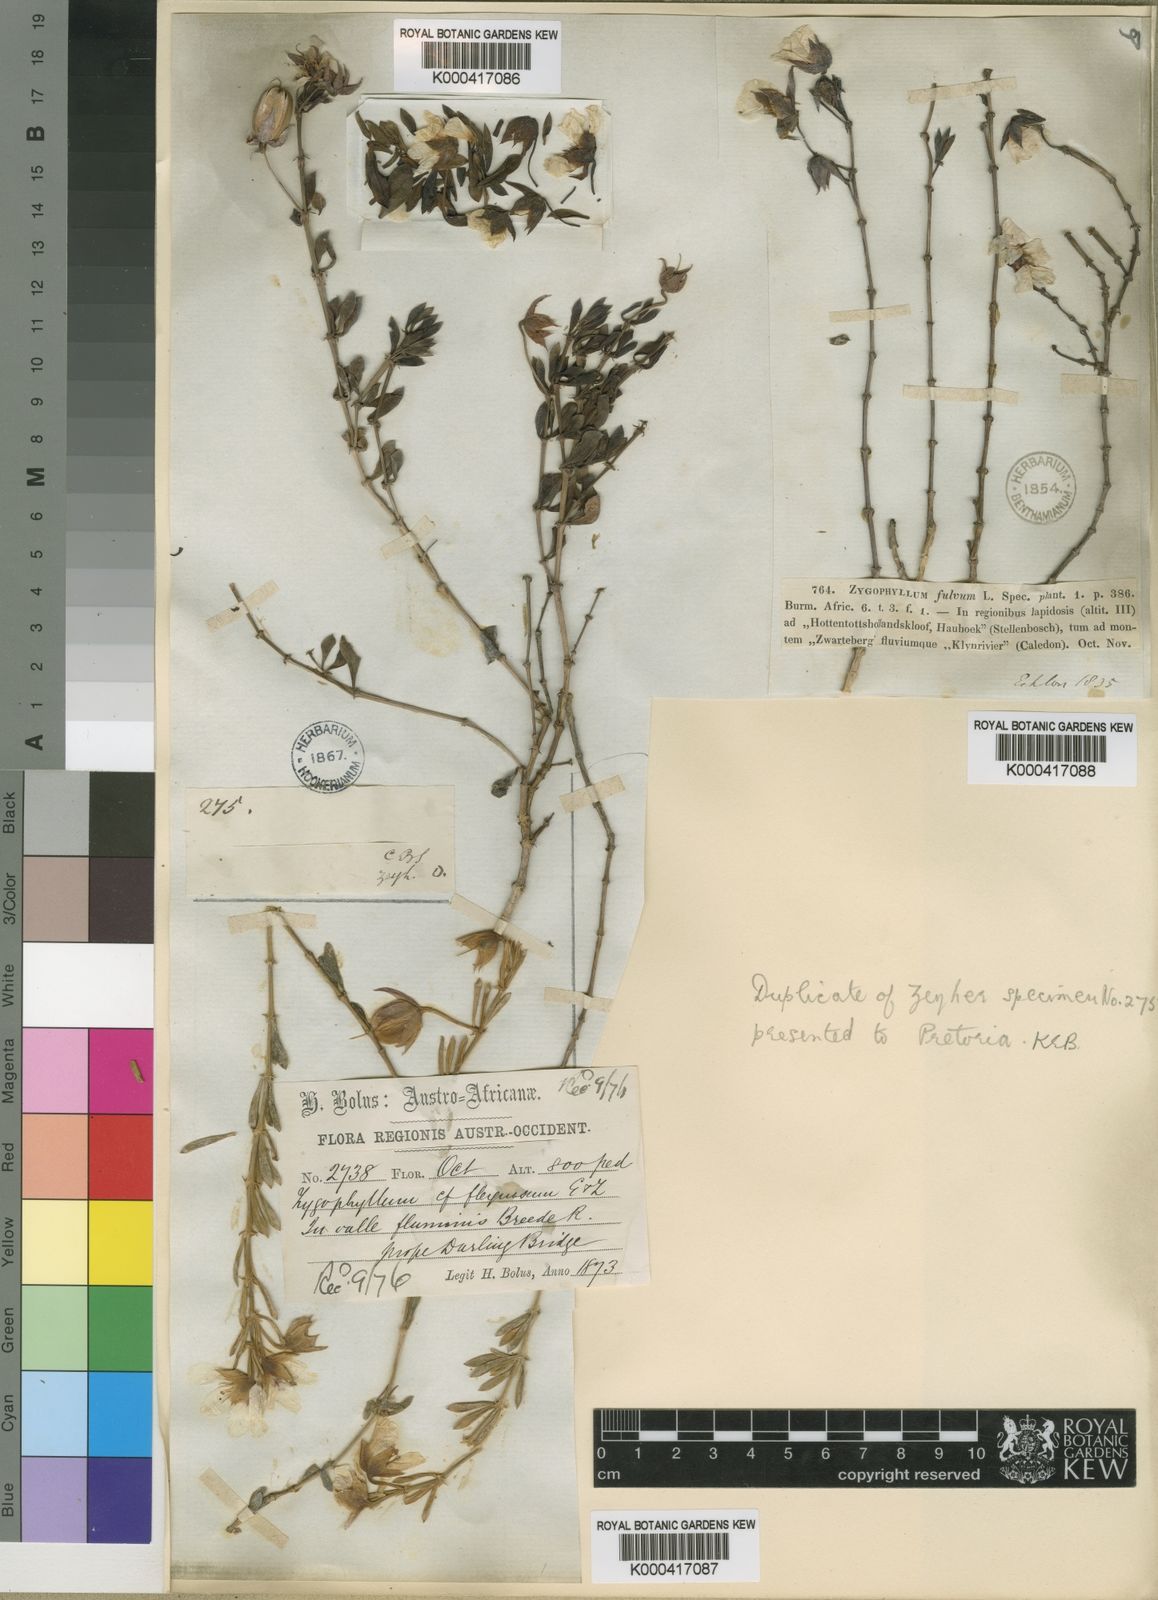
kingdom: Plantae
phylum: Tracheophyta
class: Magnoliopsida
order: Zygophyllales
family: Zygophyllaceae
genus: Roepera
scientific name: Roepera fulva
